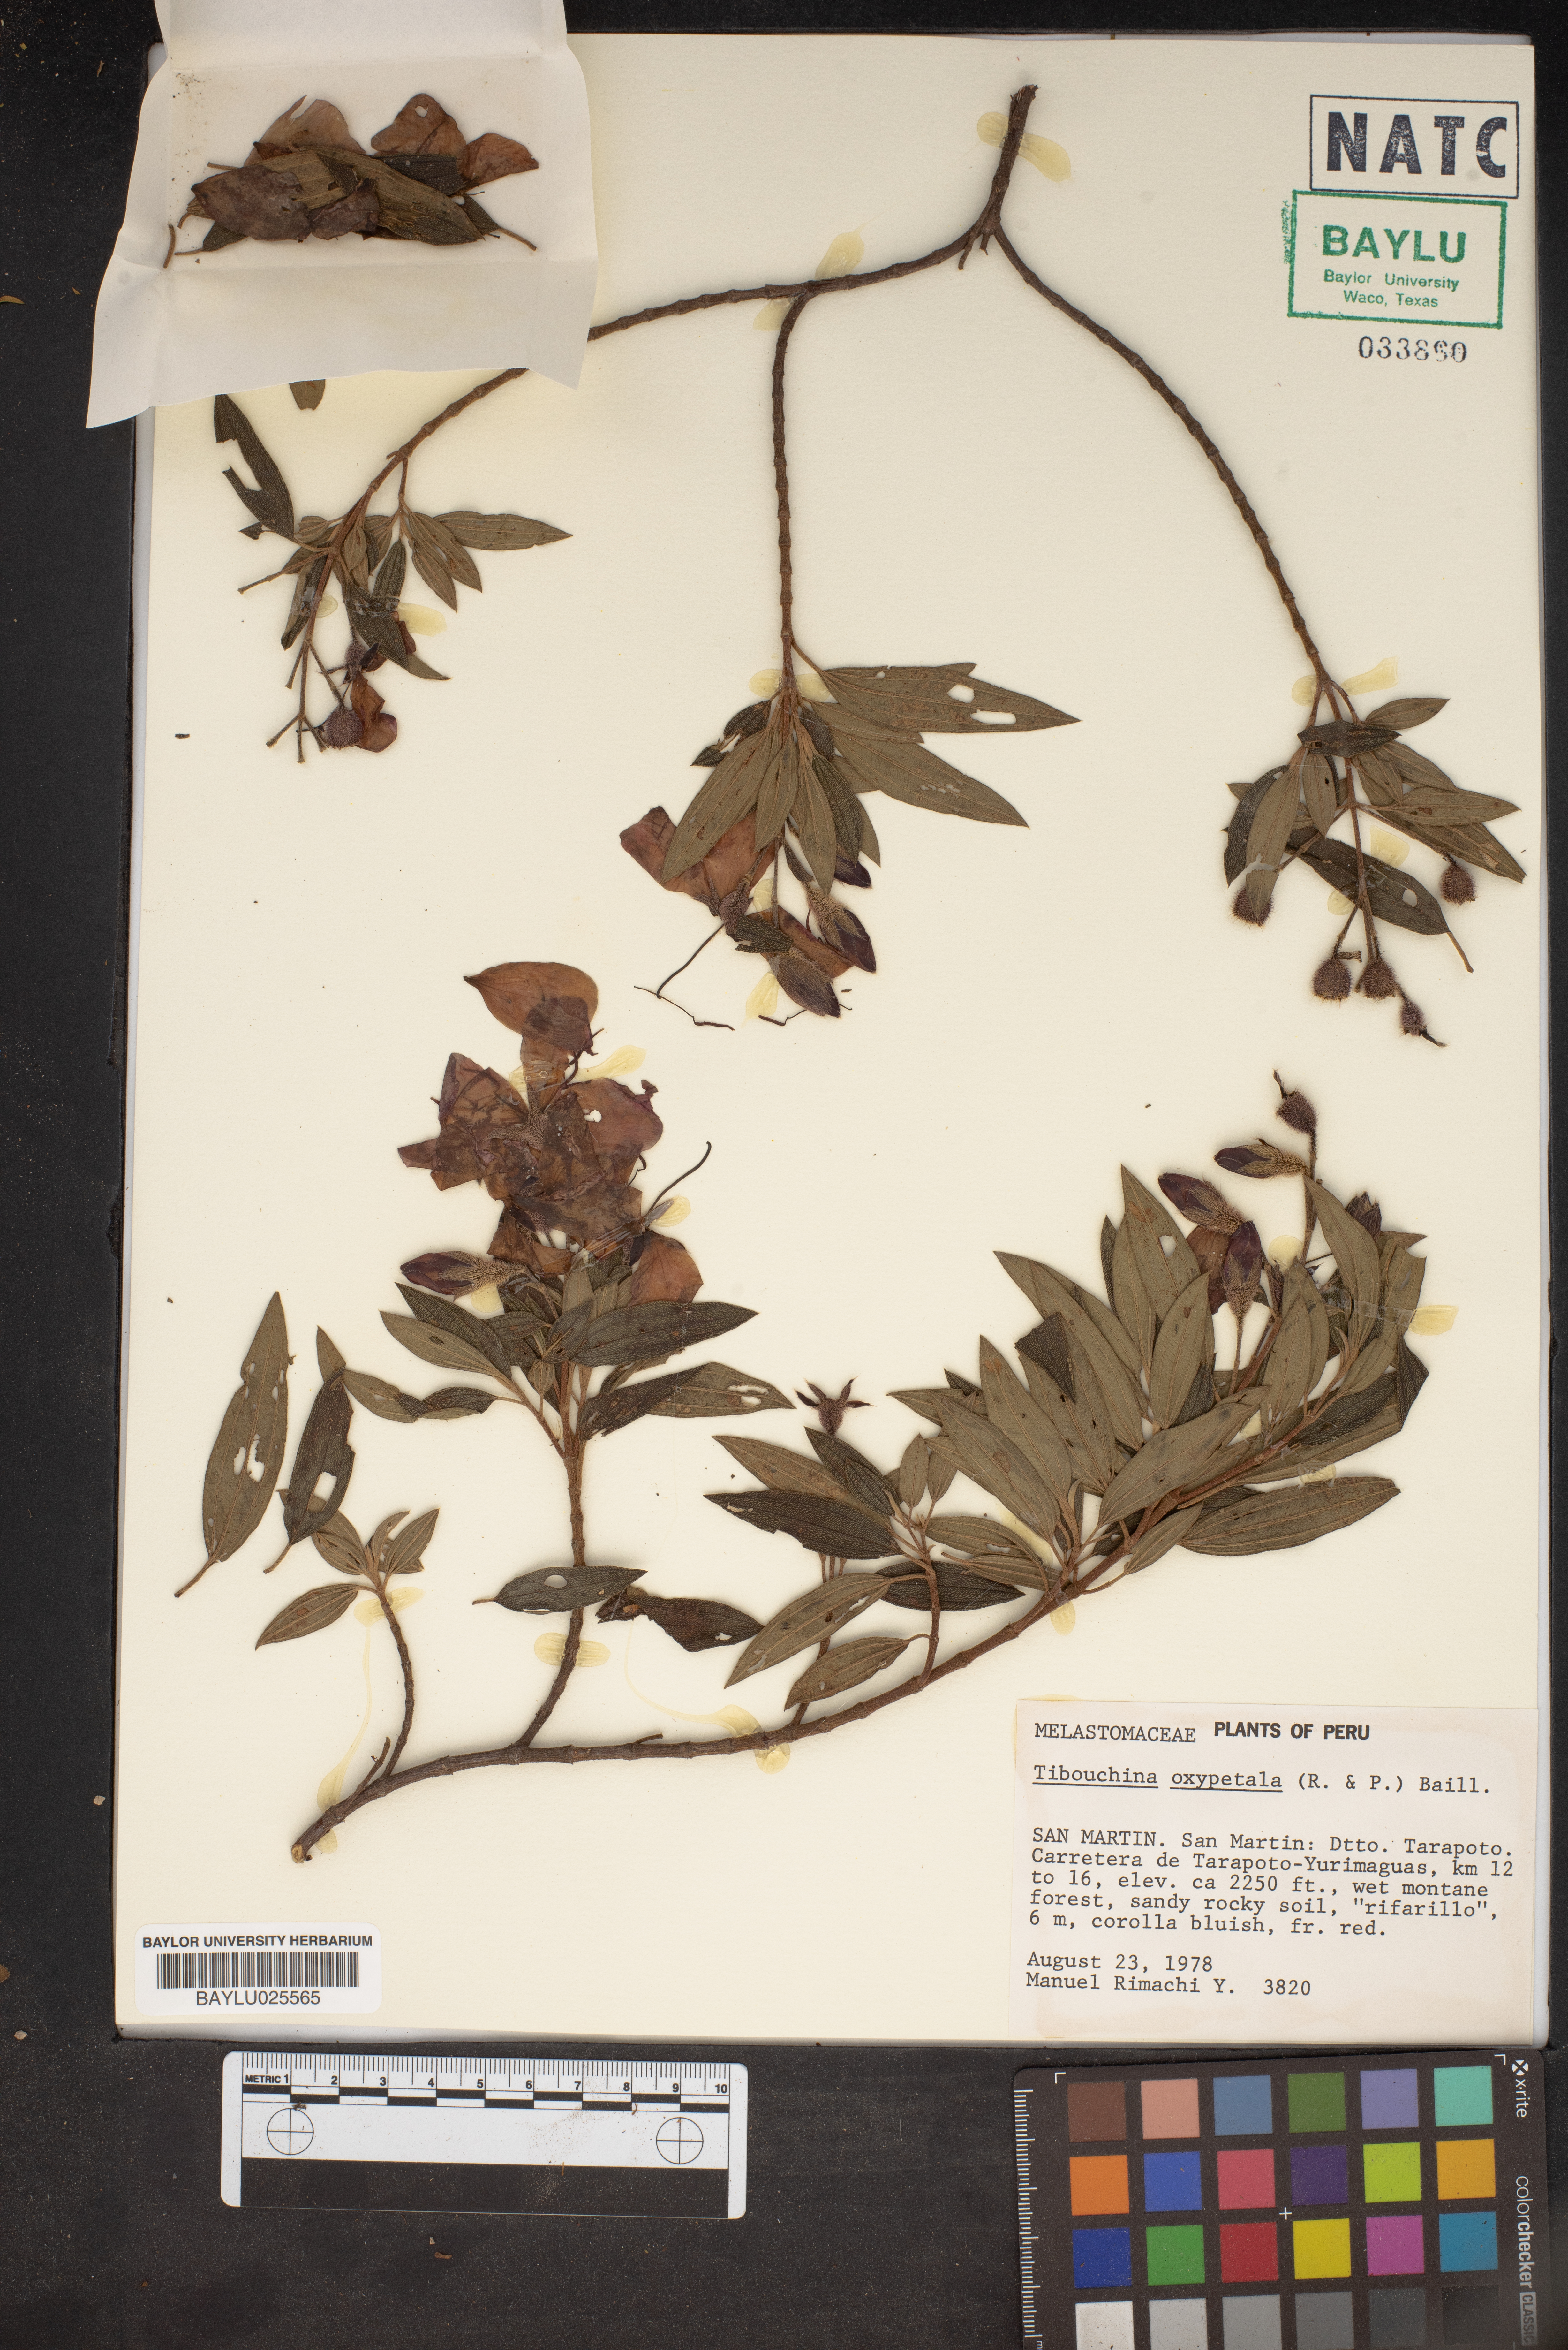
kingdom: Plantae
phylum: Tracheophyta
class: Magnoliopsida
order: Myrtales
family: Melastomataceae
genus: Tibouchina
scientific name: Tibouchina
